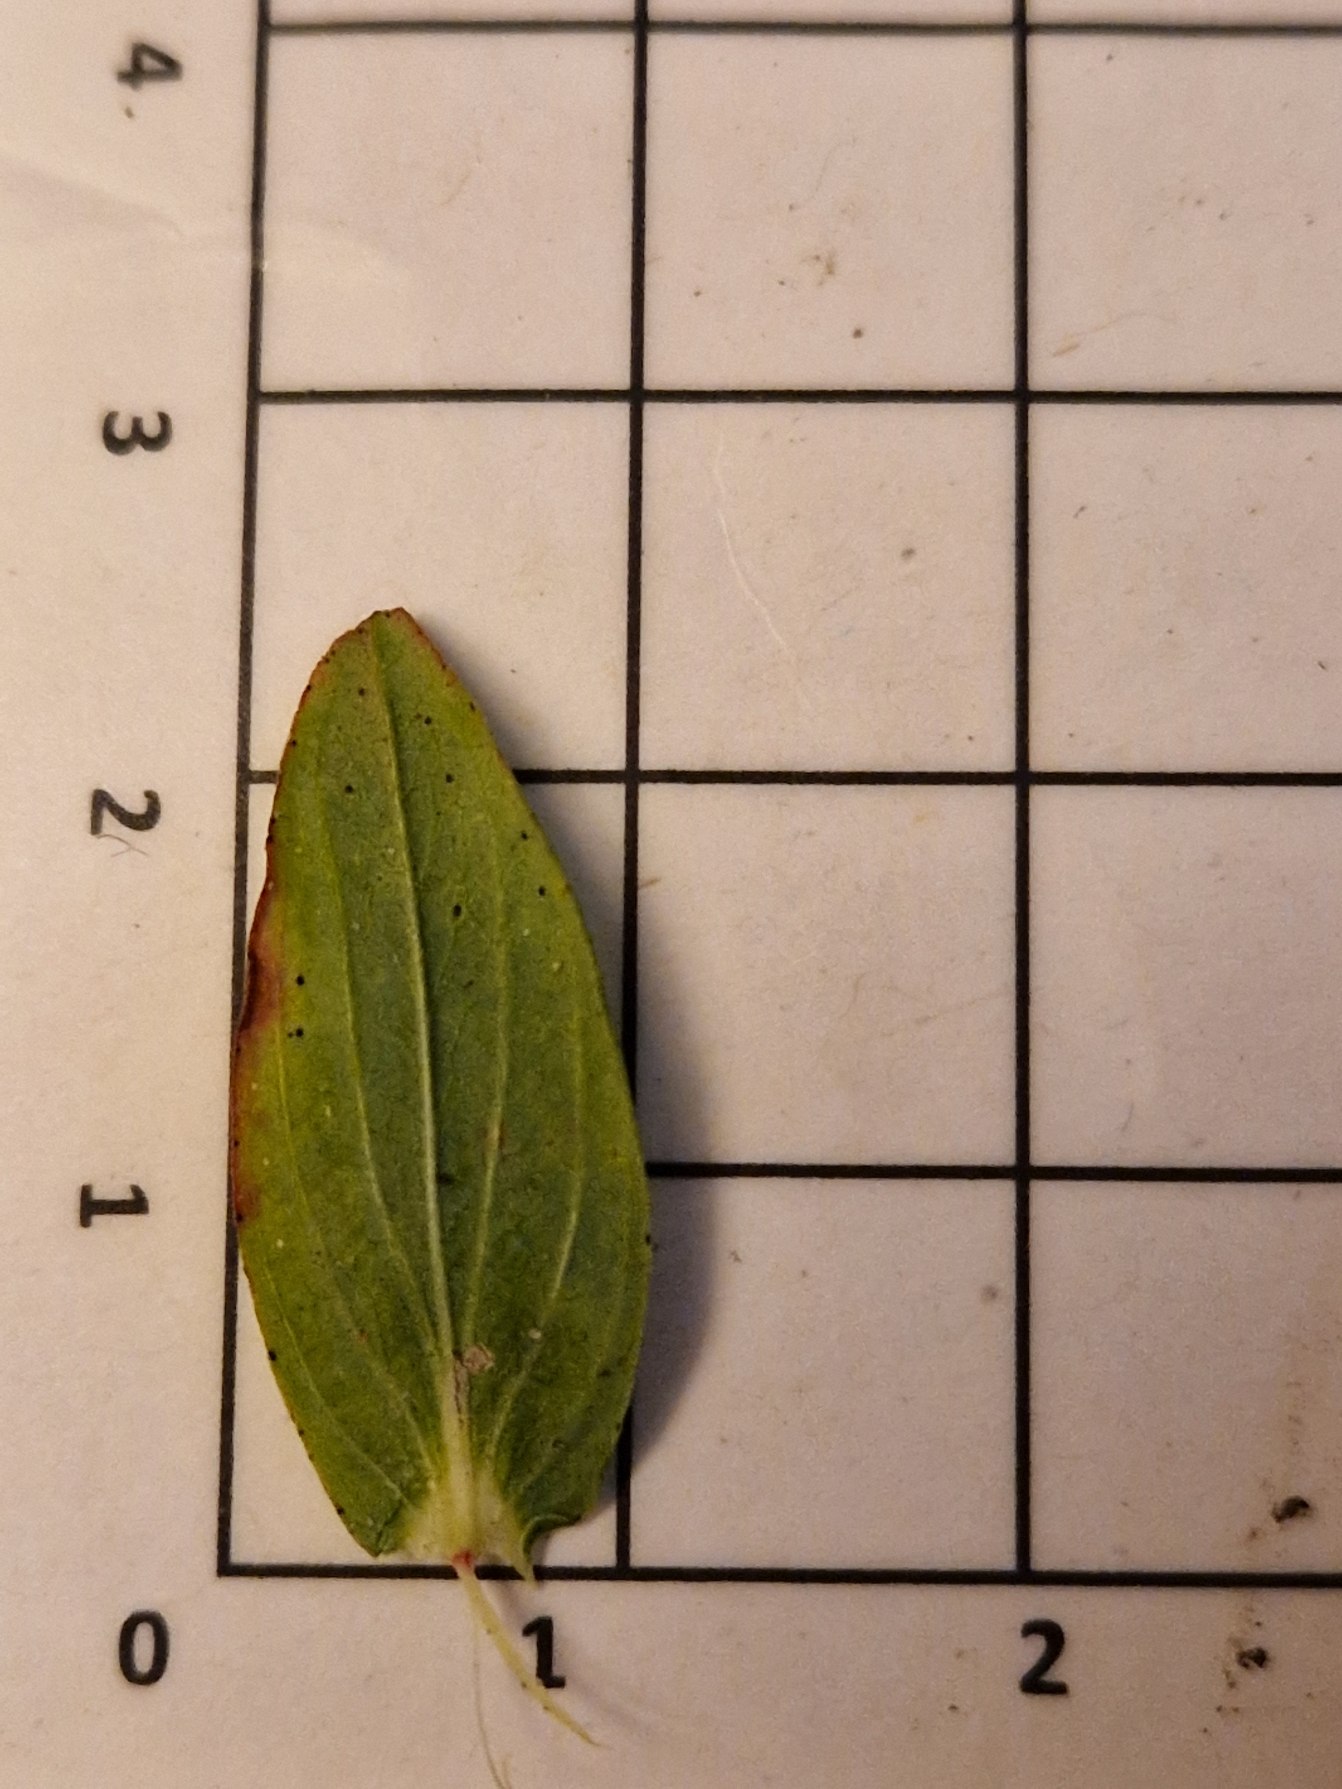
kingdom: Plantae
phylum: Tracheophyta
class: Magnoliopsida
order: Malpighiales
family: Hypericaceae
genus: Hypericum
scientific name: Hypericum perforatum
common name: Prikbladet perikon
